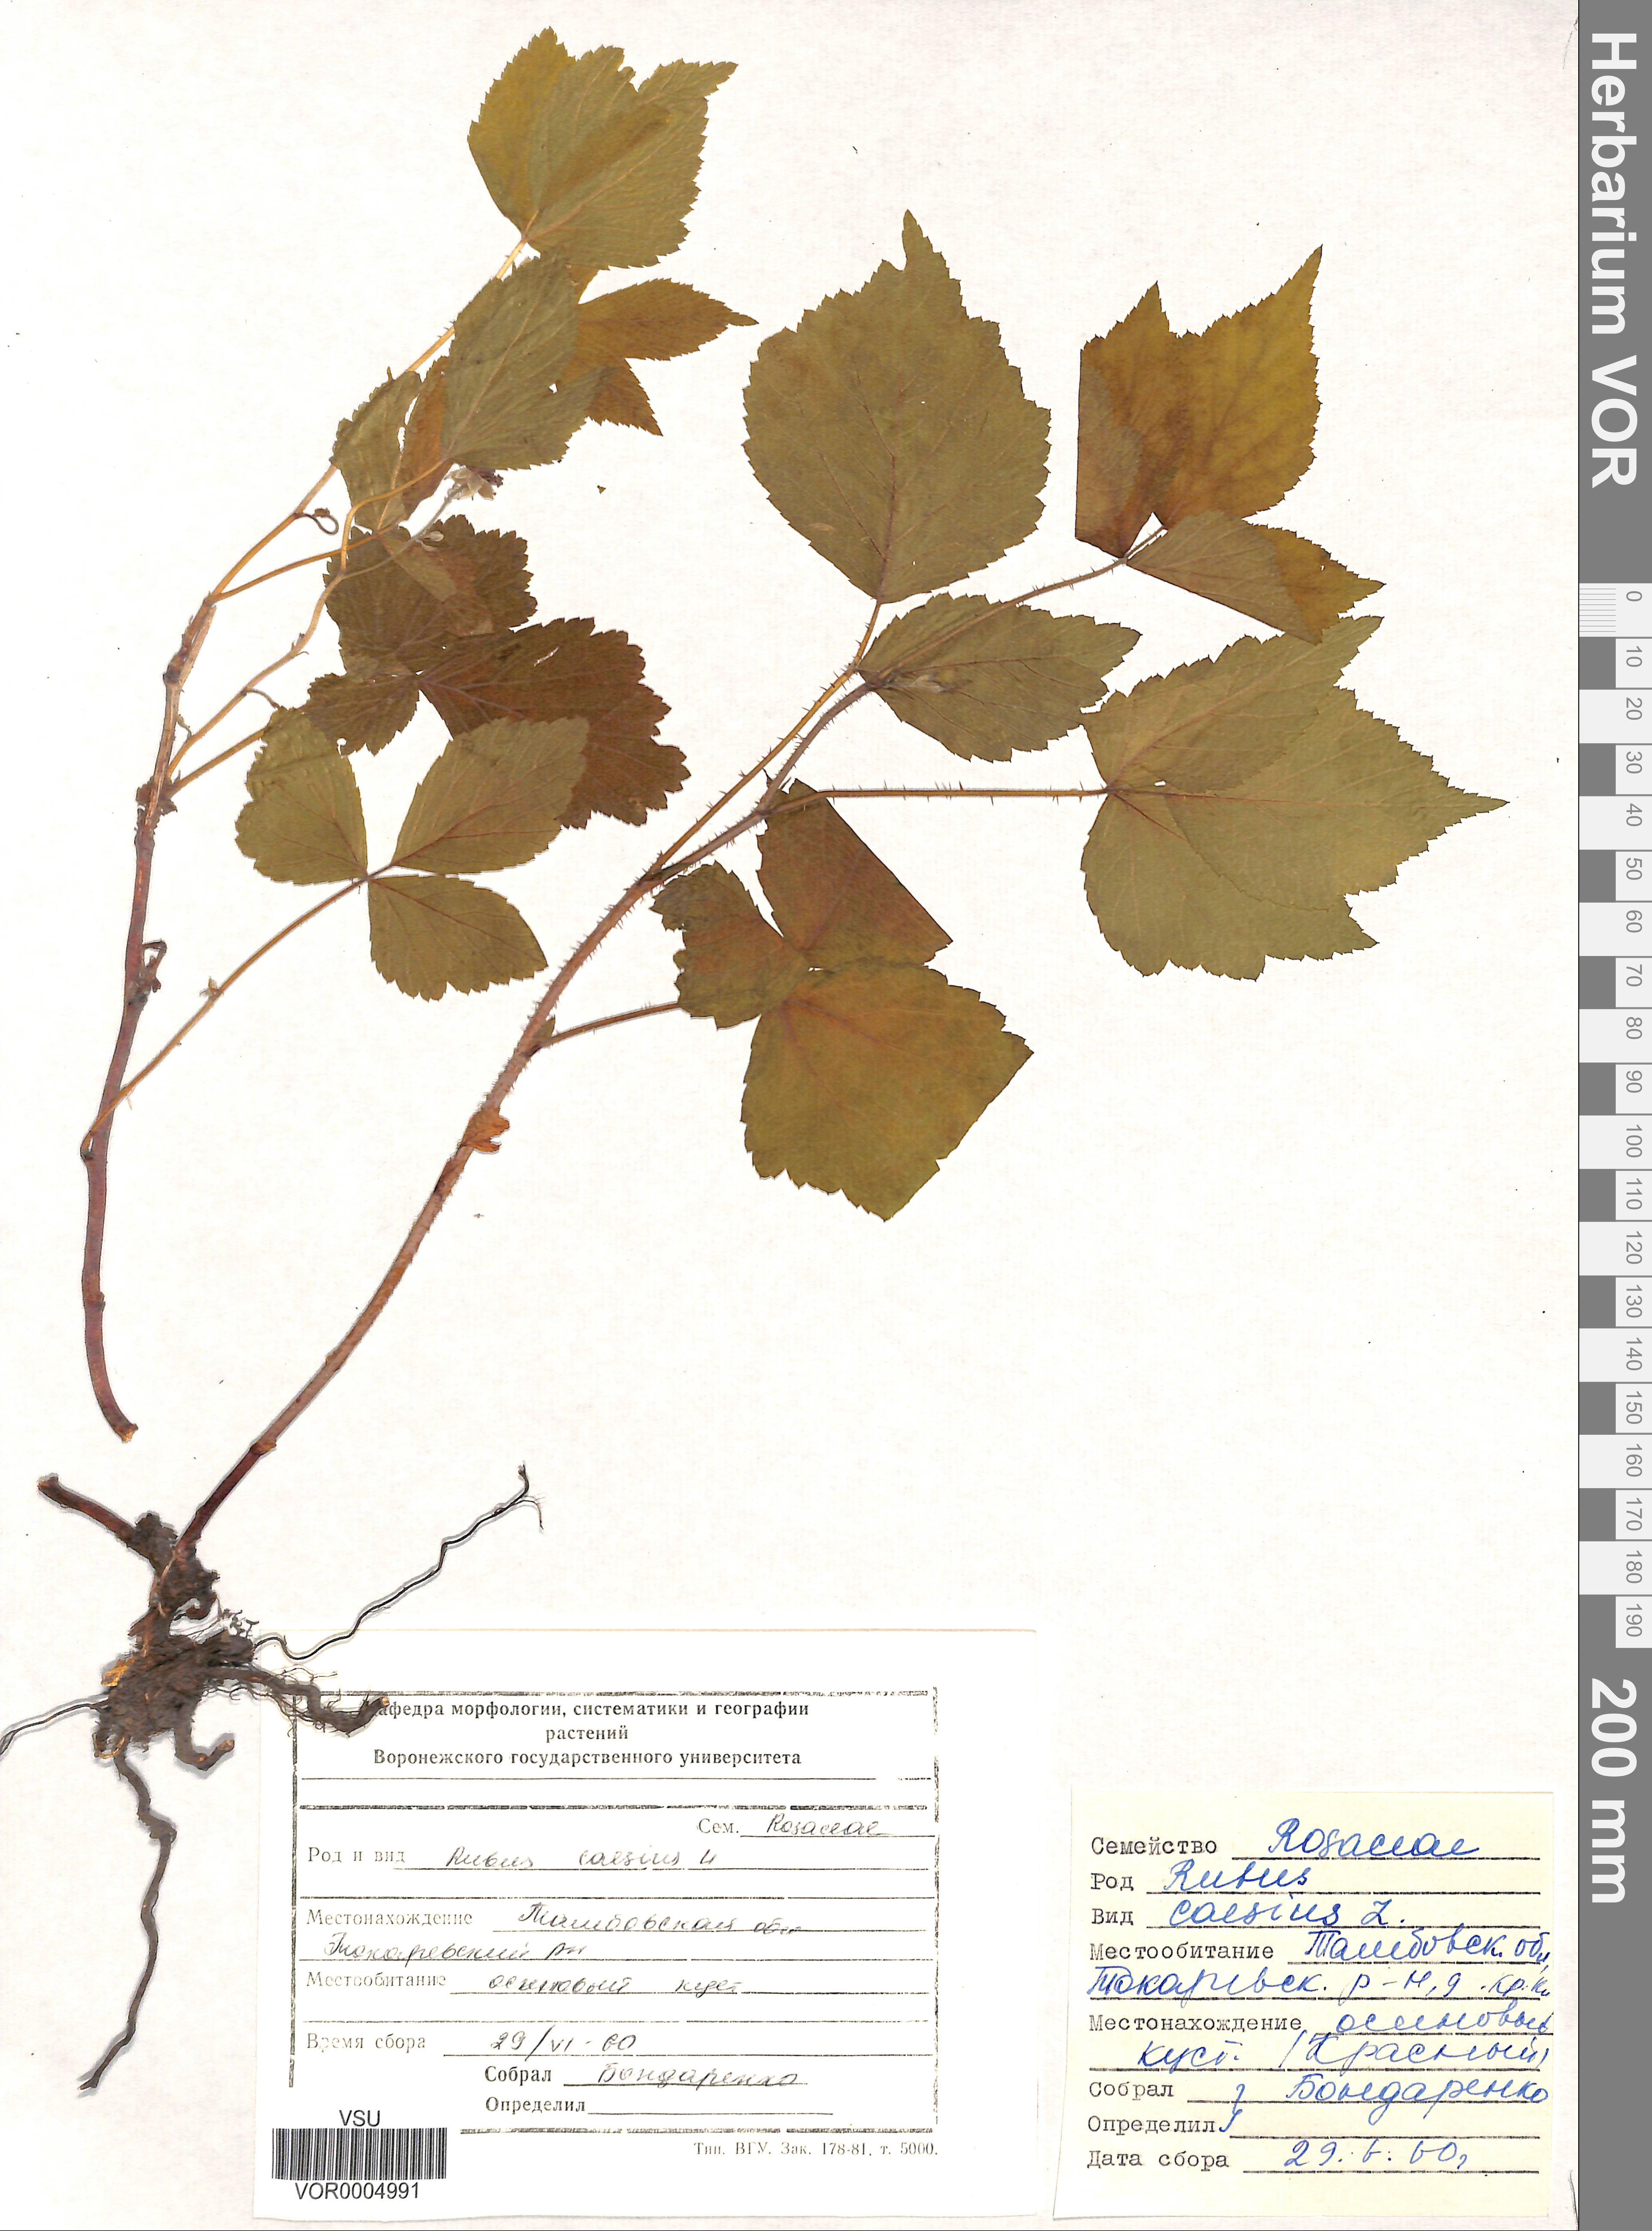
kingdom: Plantae
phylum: Tracheophyta
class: Magnoliopsida
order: Rosales
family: Rosaceae
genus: Rubus
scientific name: Rubus caesius
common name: Dewberry
